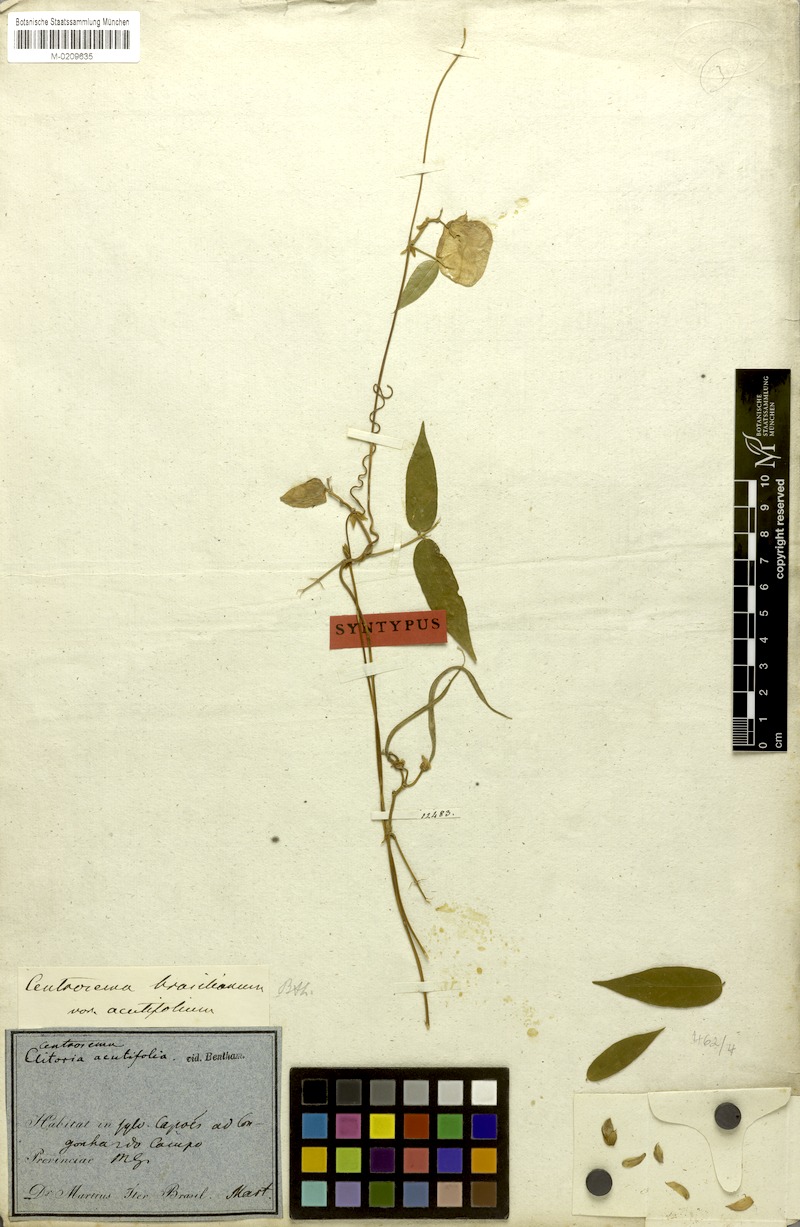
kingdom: Plantae
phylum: Tracheophyta
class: Magnoliopsida
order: Fabales
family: Fabaceae
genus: Centrosema
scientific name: Centrosema brasilianum
